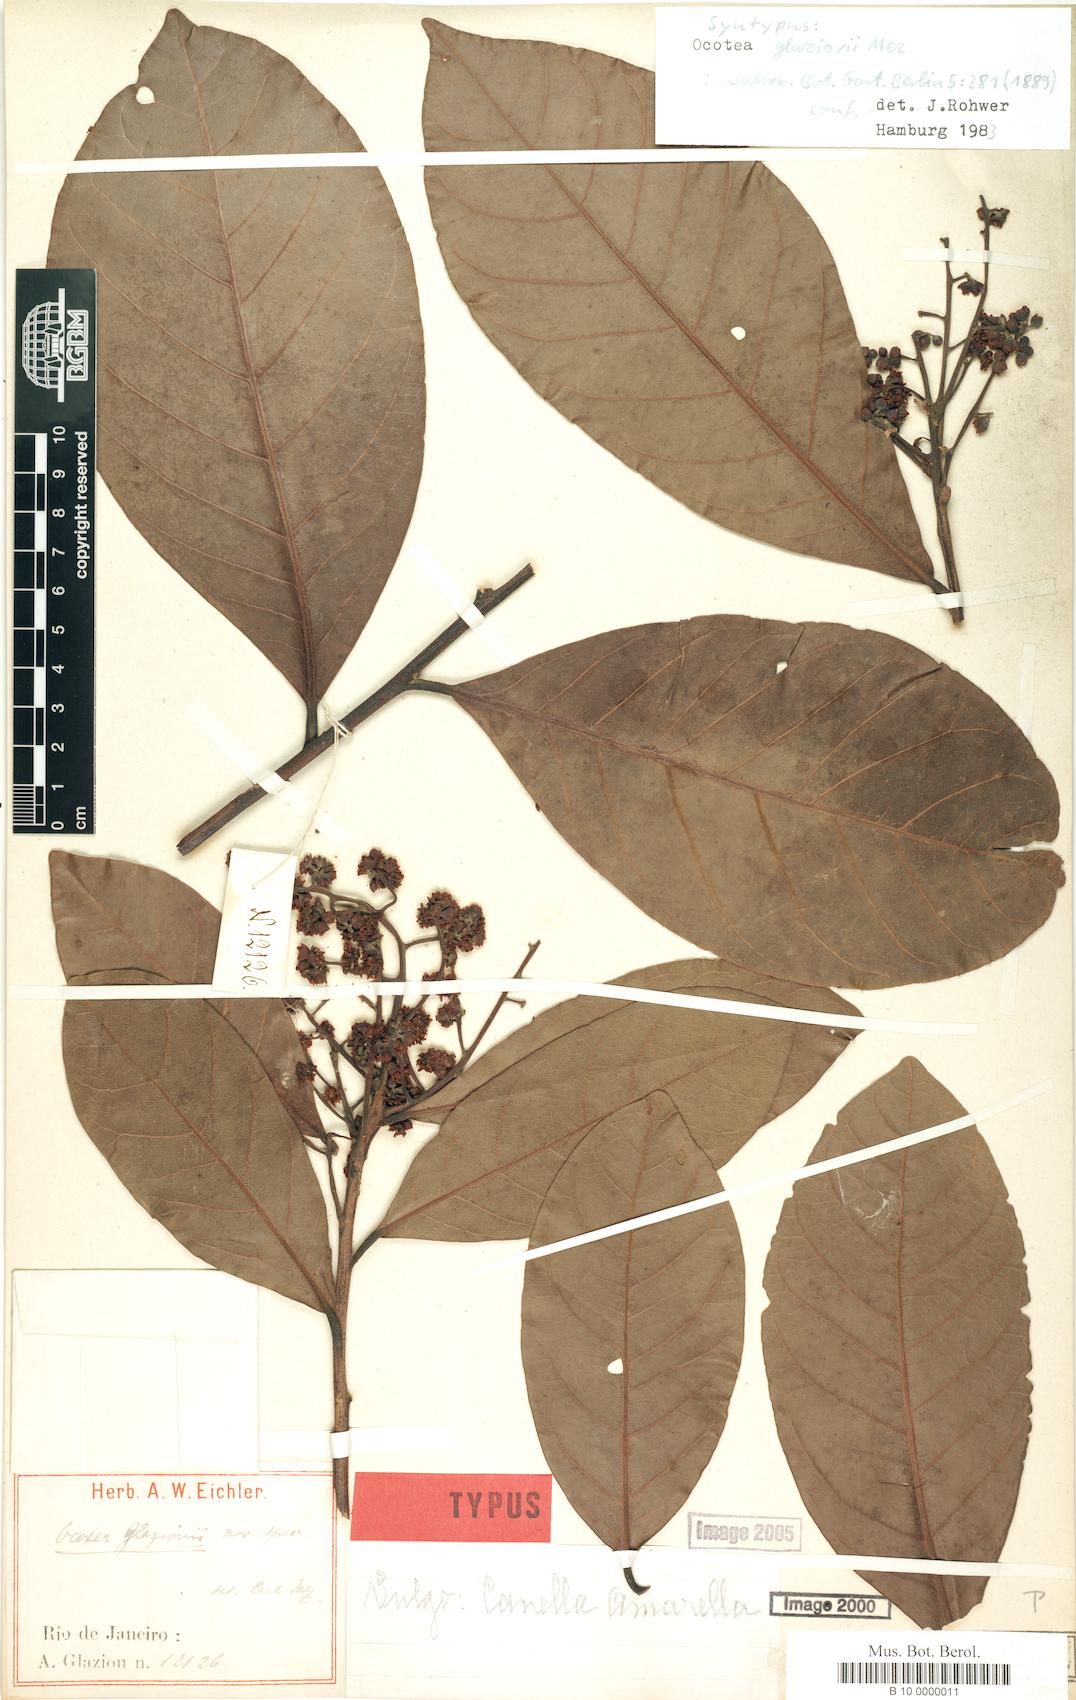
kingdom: Plantae
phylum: Tracheophyta
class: Magnoliopsida
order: Laurales
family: Lauraceae
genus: Ocotea
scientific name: Ocotea glaziovii
